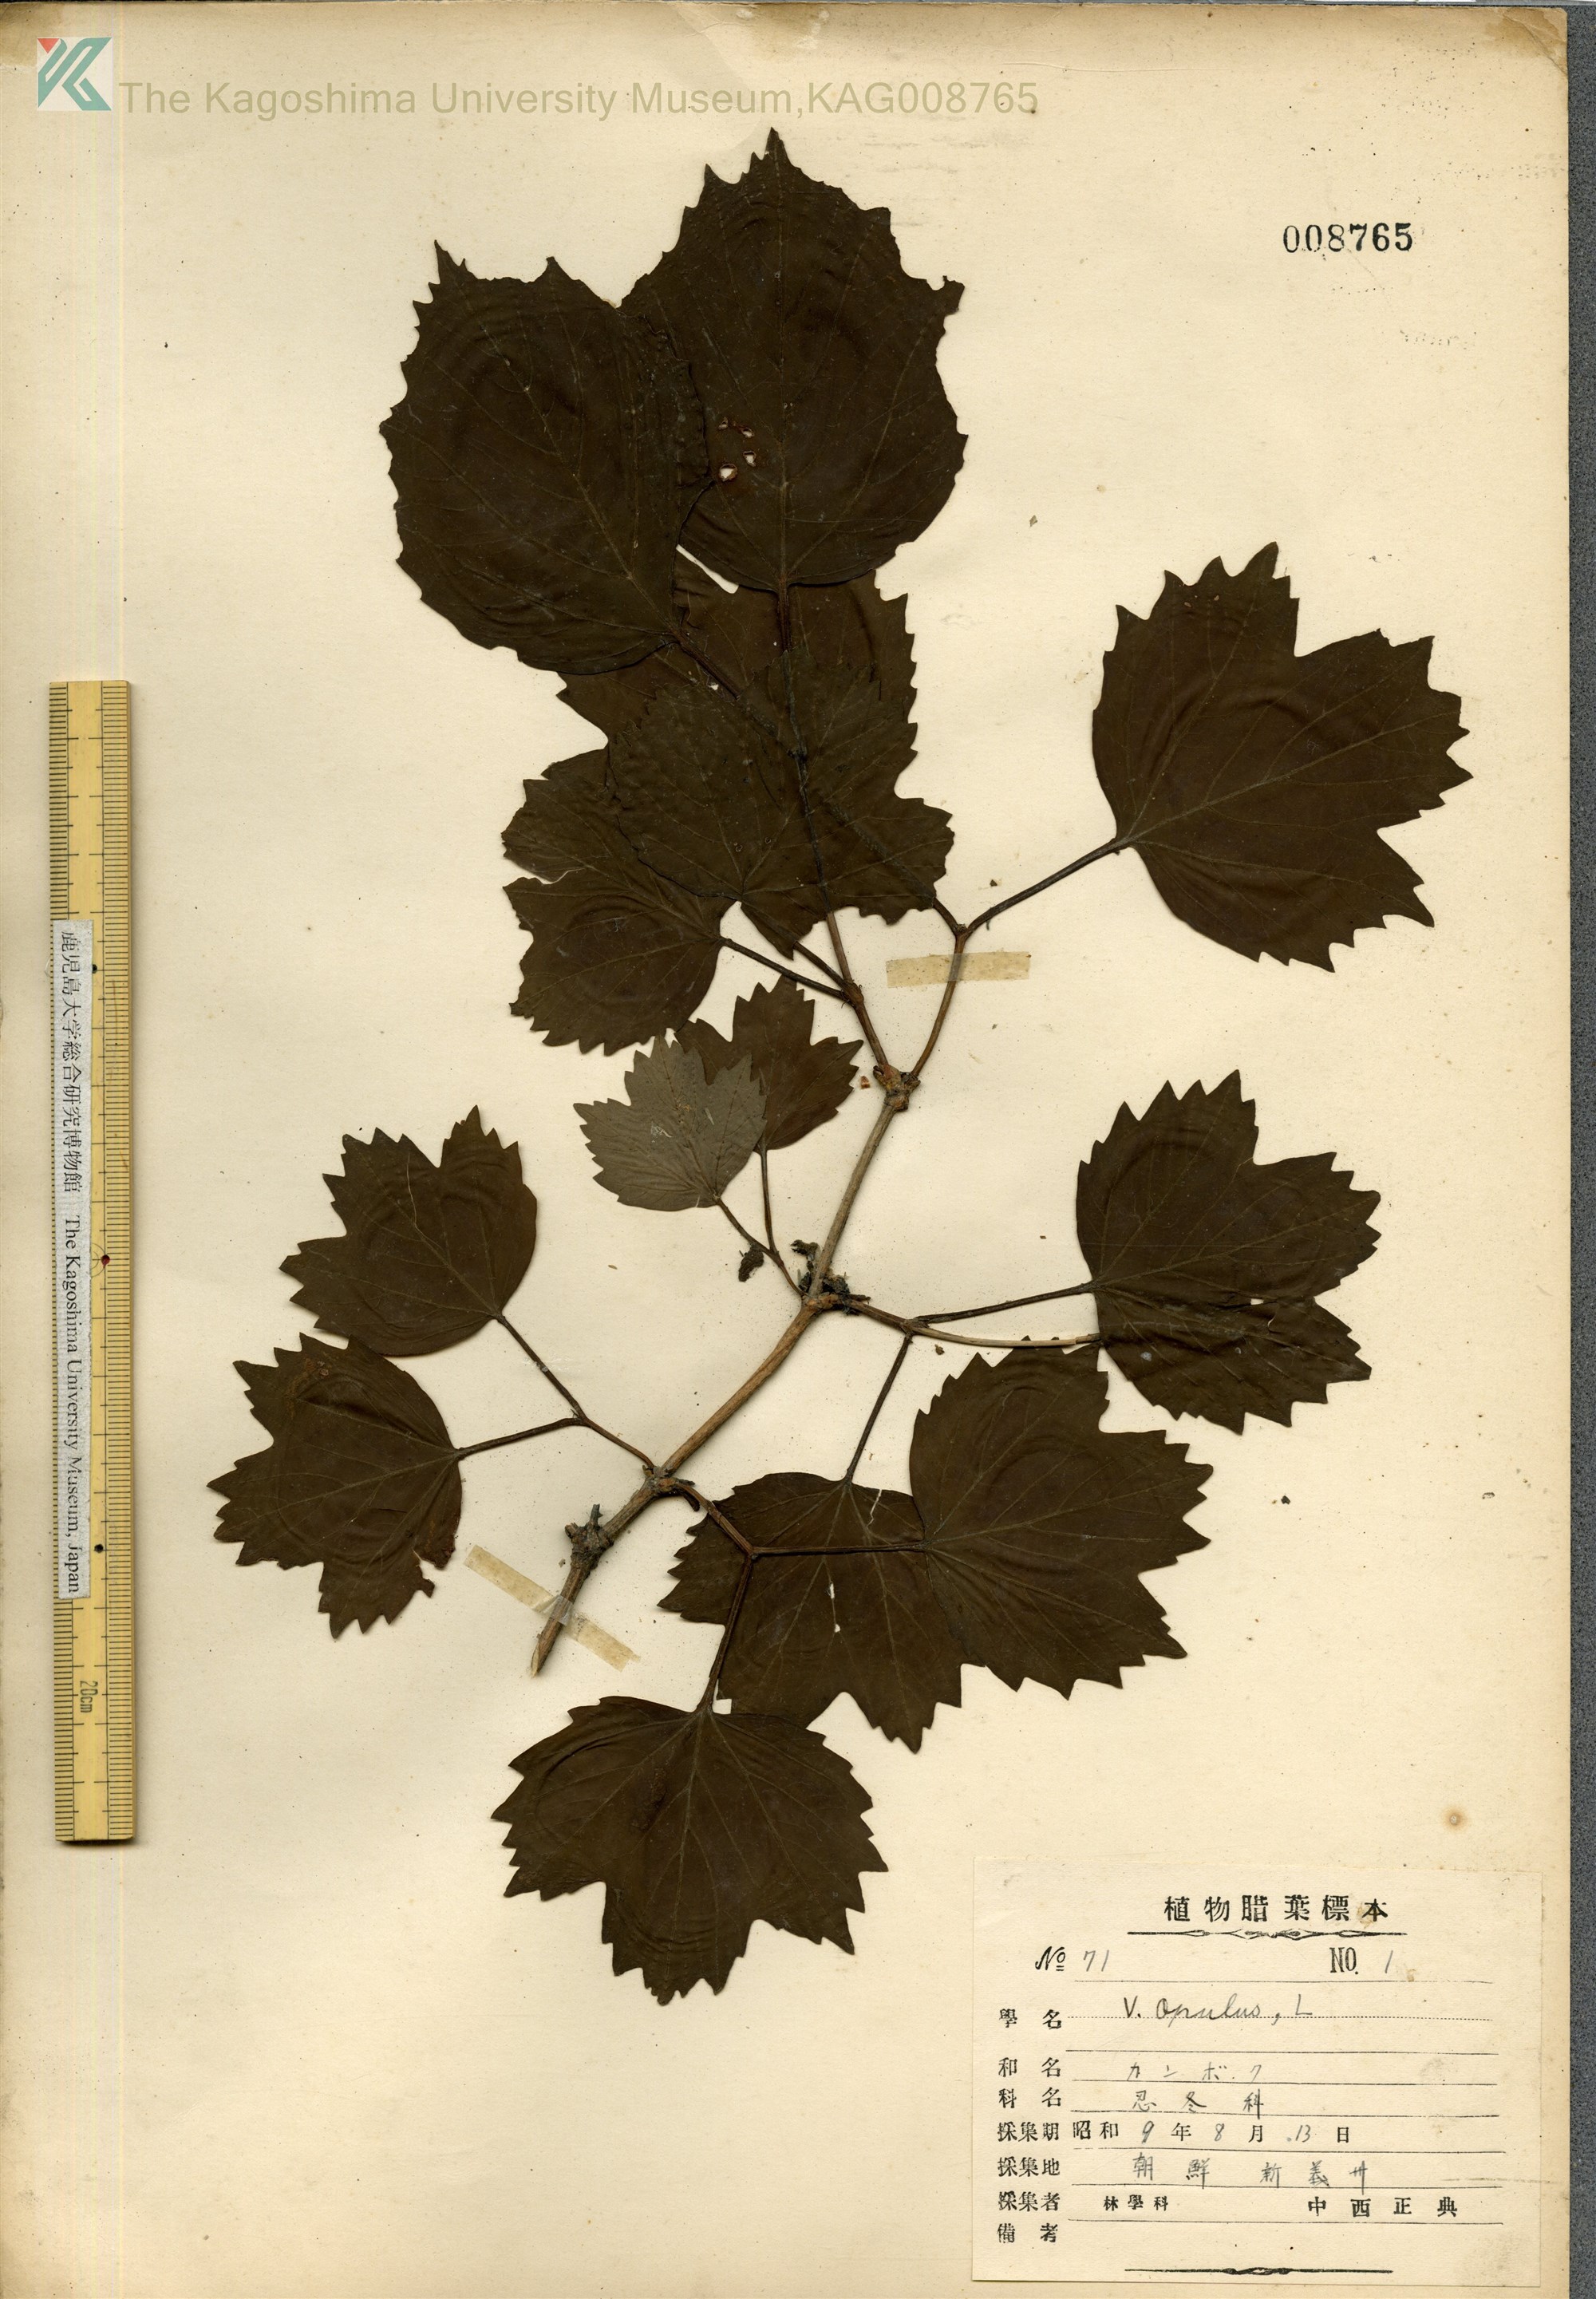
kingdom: Plantae
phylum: Tracheophyta
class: Magnoliopsida
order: Dipsacales
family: Viburnaceae
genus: Viburnum
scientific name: Viburnum opulus
